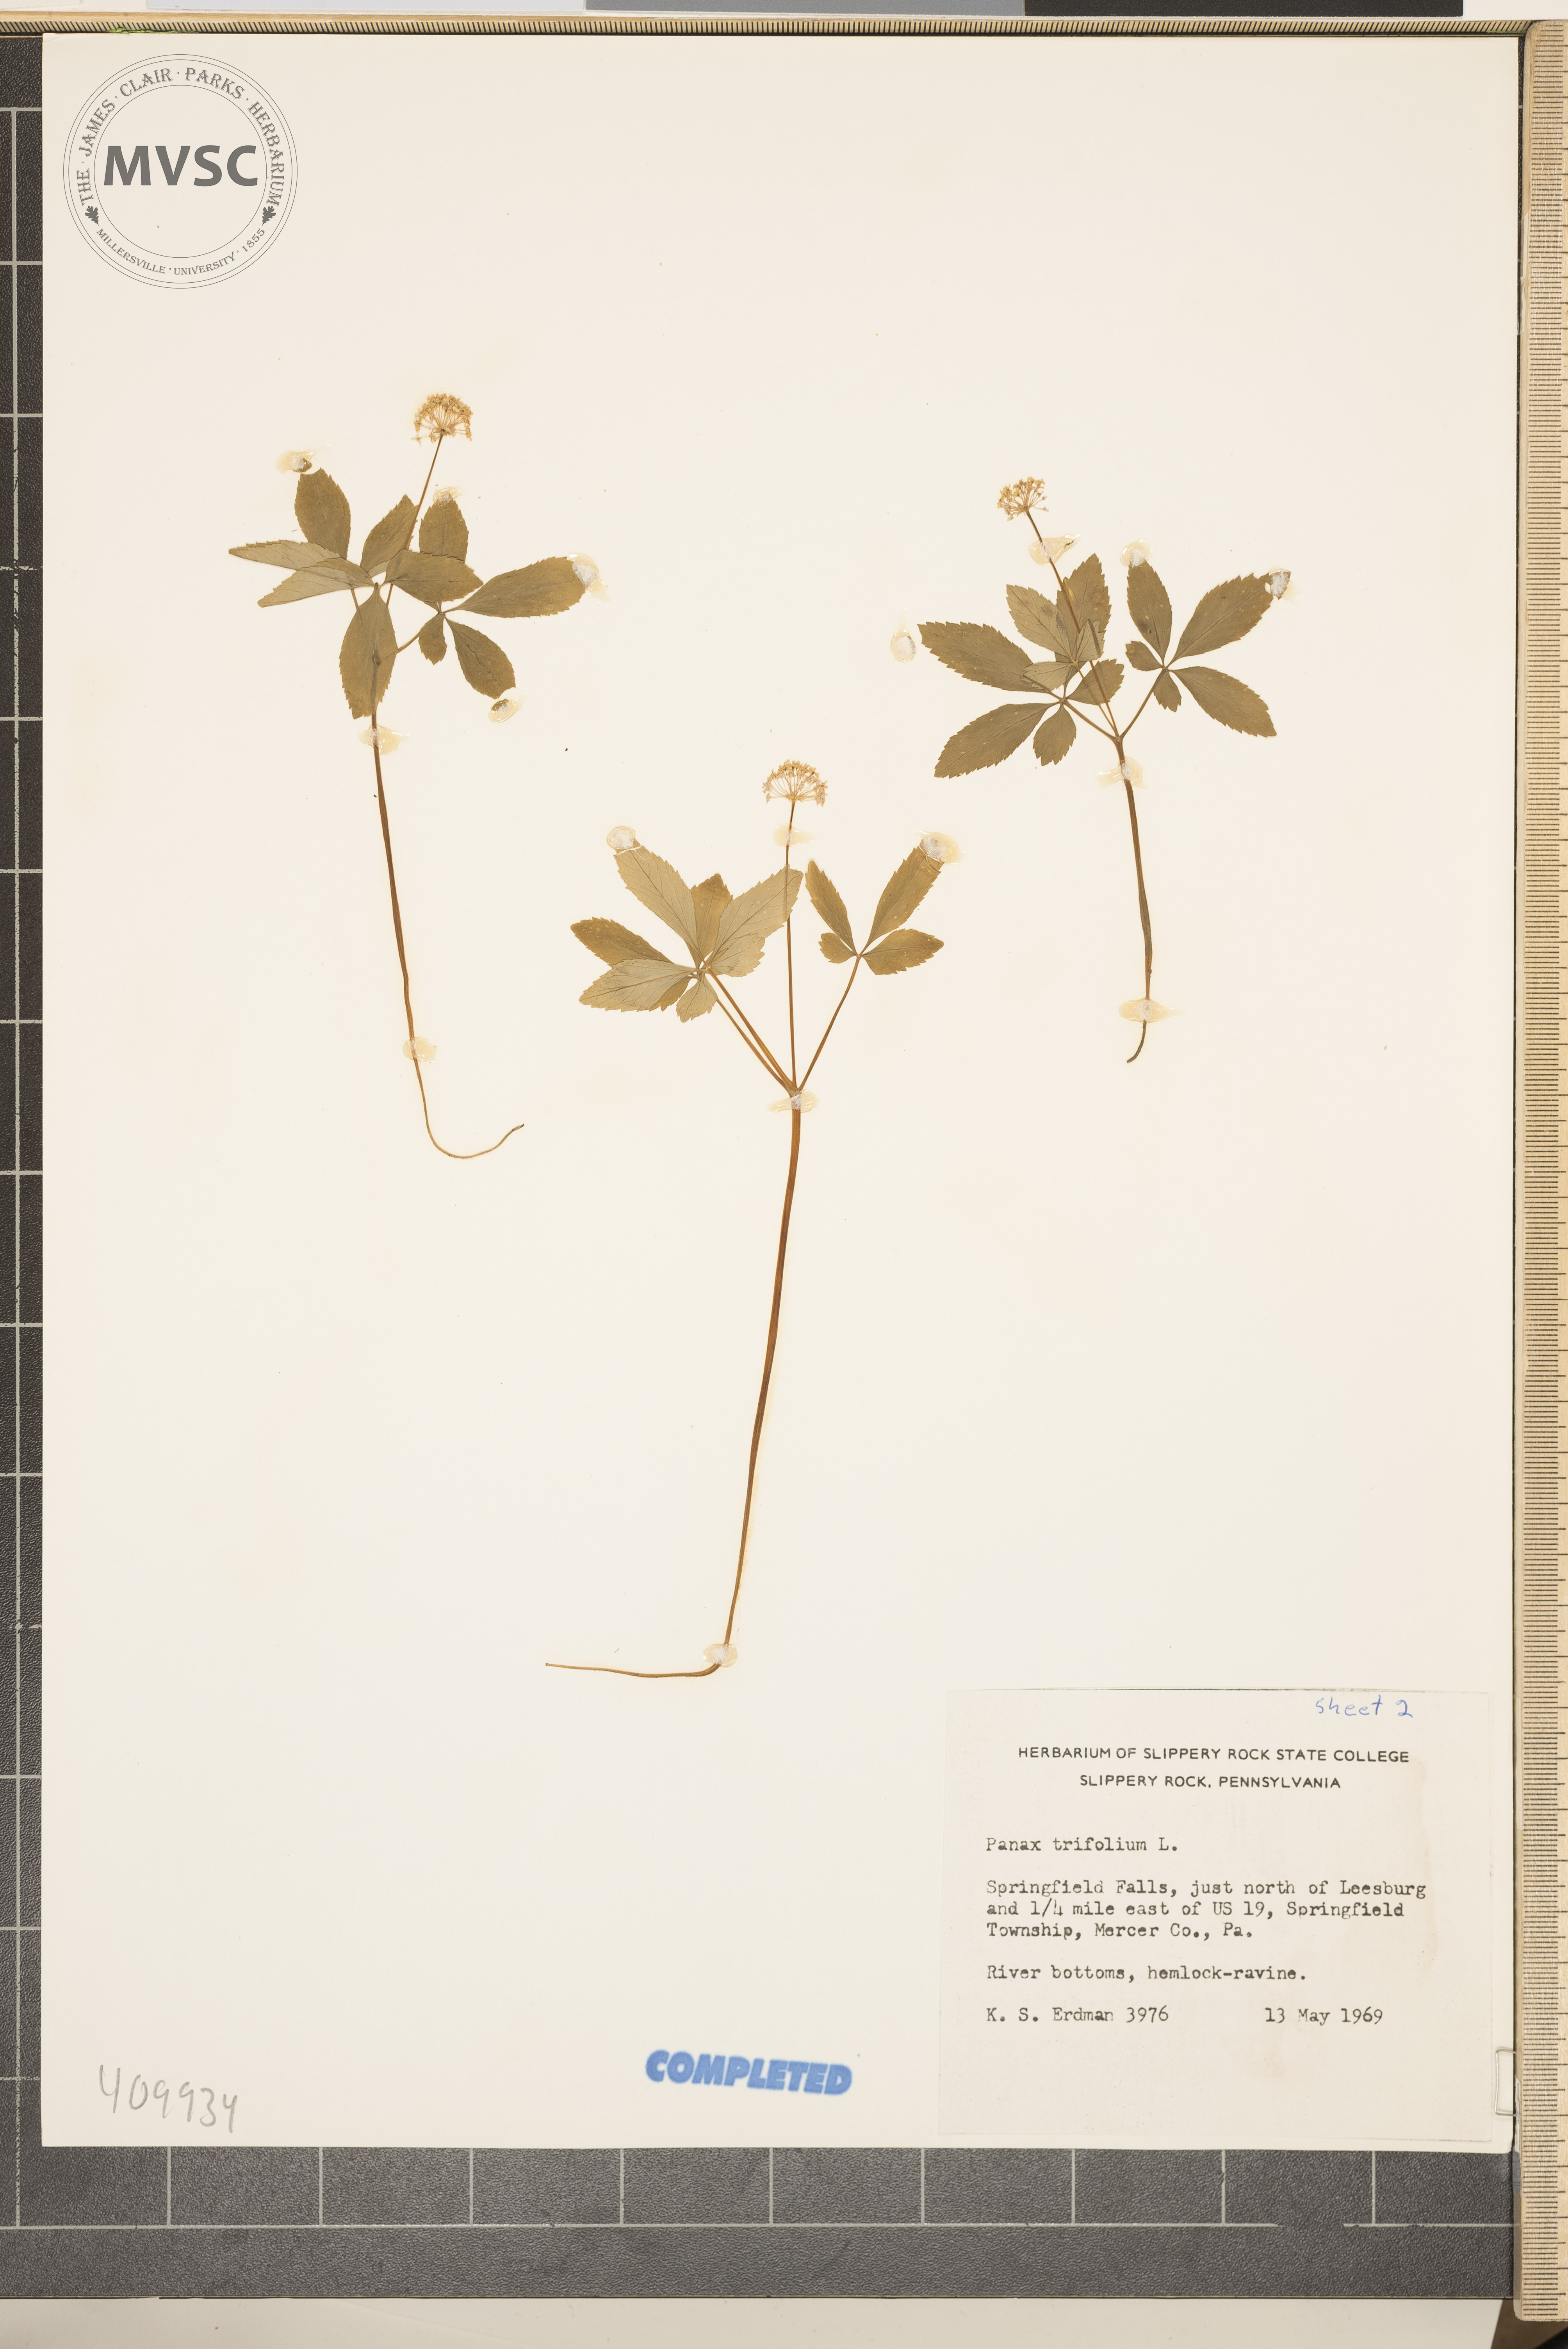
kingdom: Plantae
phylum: Tracheophyta
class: Magnoliopsida
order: Apiales
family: Araliaceae
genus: Panax
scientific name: Panax trifolius
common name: Dwarf ginseng
